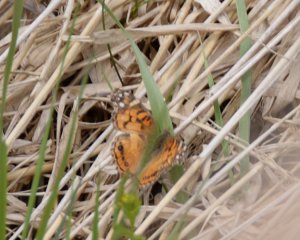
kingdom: Animalia
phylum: Arthropoda
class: Insecta
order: Lepidoptera
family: Nymphalidae
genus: Vanessa
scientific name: Vanessa virginiensis
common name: American Lady
